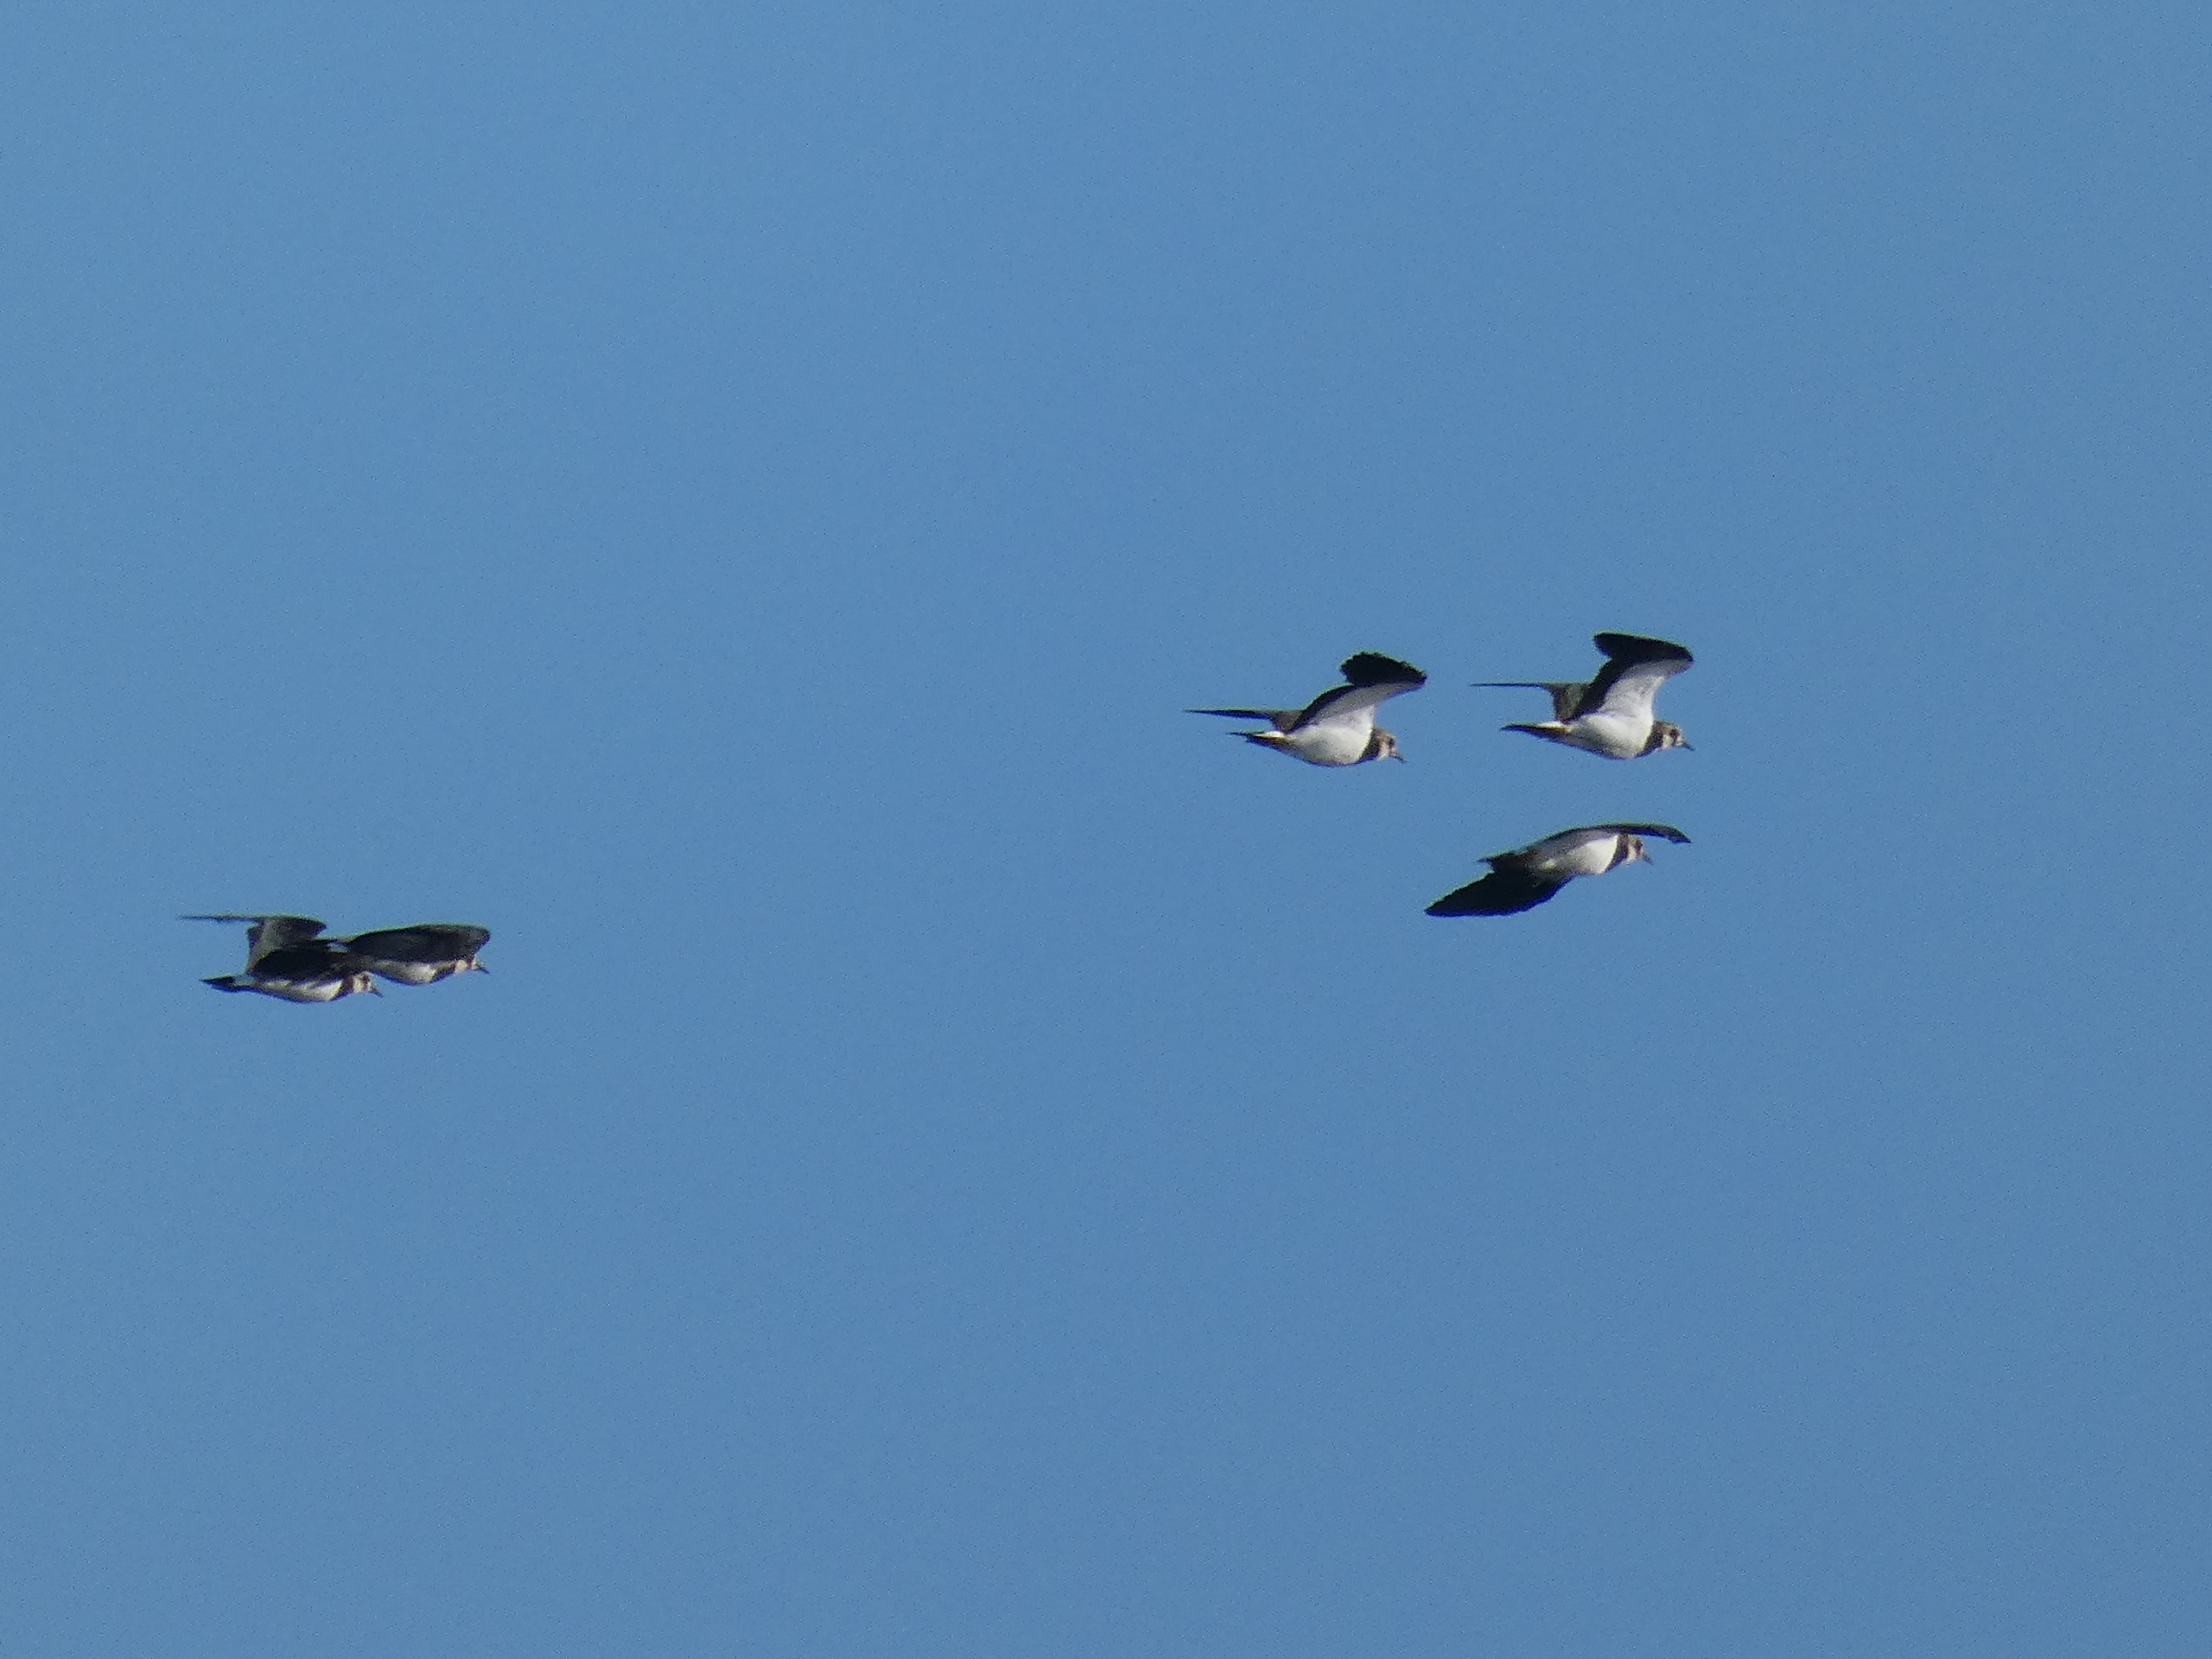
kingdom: Animalia
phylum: Chordata
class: Aves
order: Charadriiformes
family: Charadriidae
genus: Vanellus
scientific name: Vanellus vanellus
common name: Vibe
